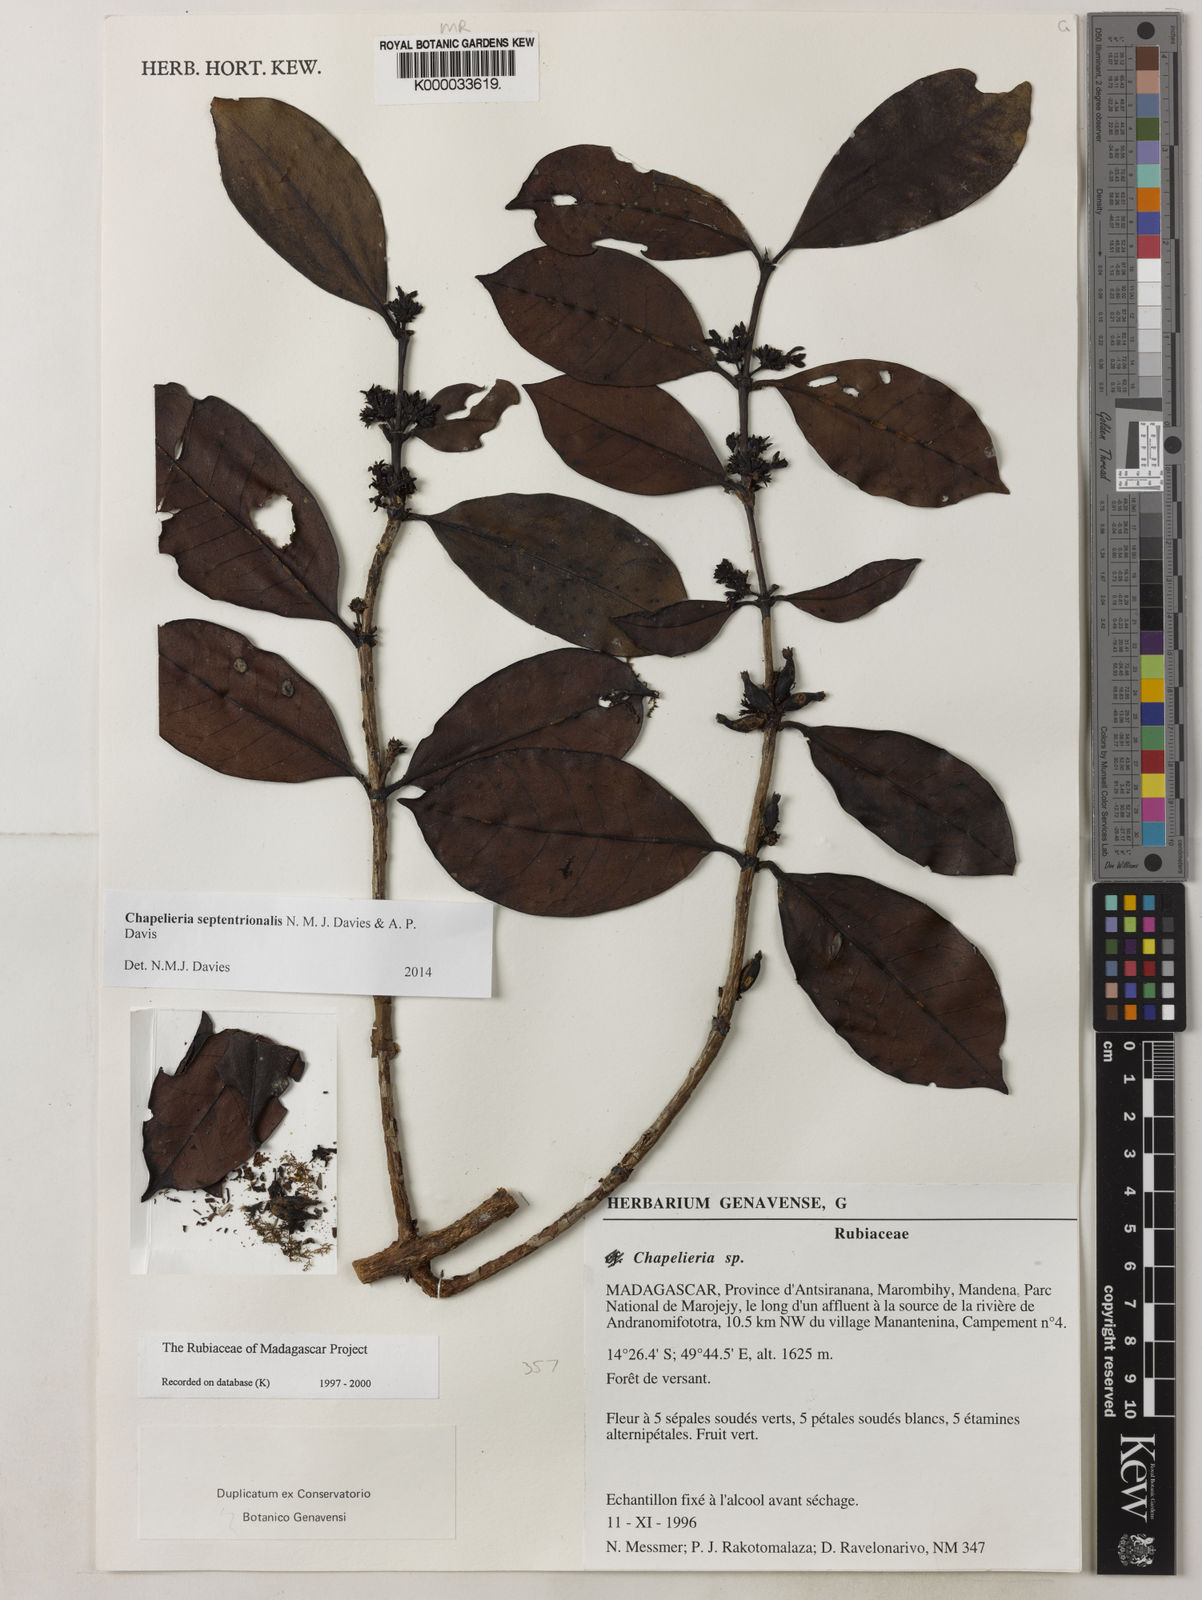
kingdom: Plantae
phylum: Tracheophyta
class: Magnoliopsida
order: Gentianales
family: Rubiaceae
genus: Chapelieria
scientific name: Chapelieria septentrionalis
